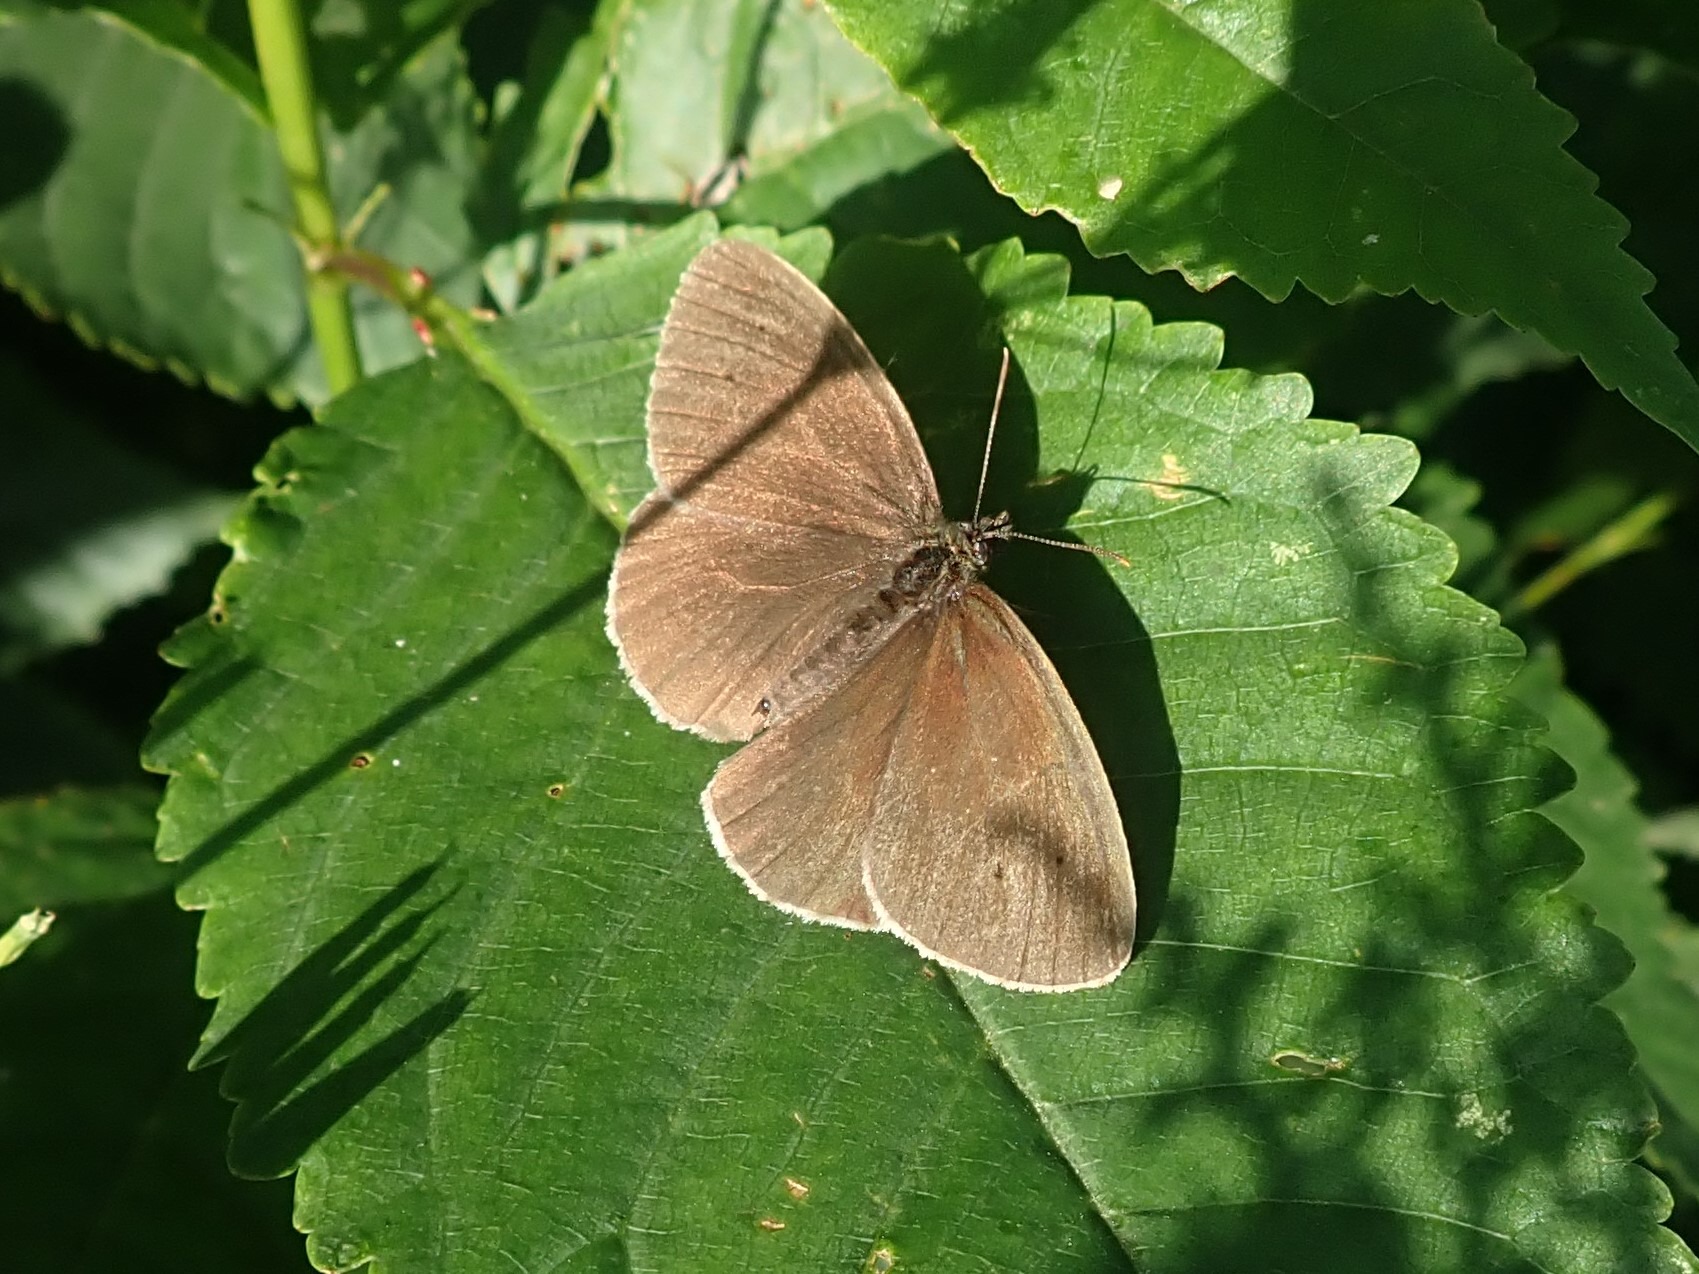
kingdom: Animalia
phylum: Arthropoda
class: Insecta
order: Lepidoptera
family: Nymphalidae
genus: Aphantopus
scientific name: Aphantopus hyperantus
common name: Engrandøje
